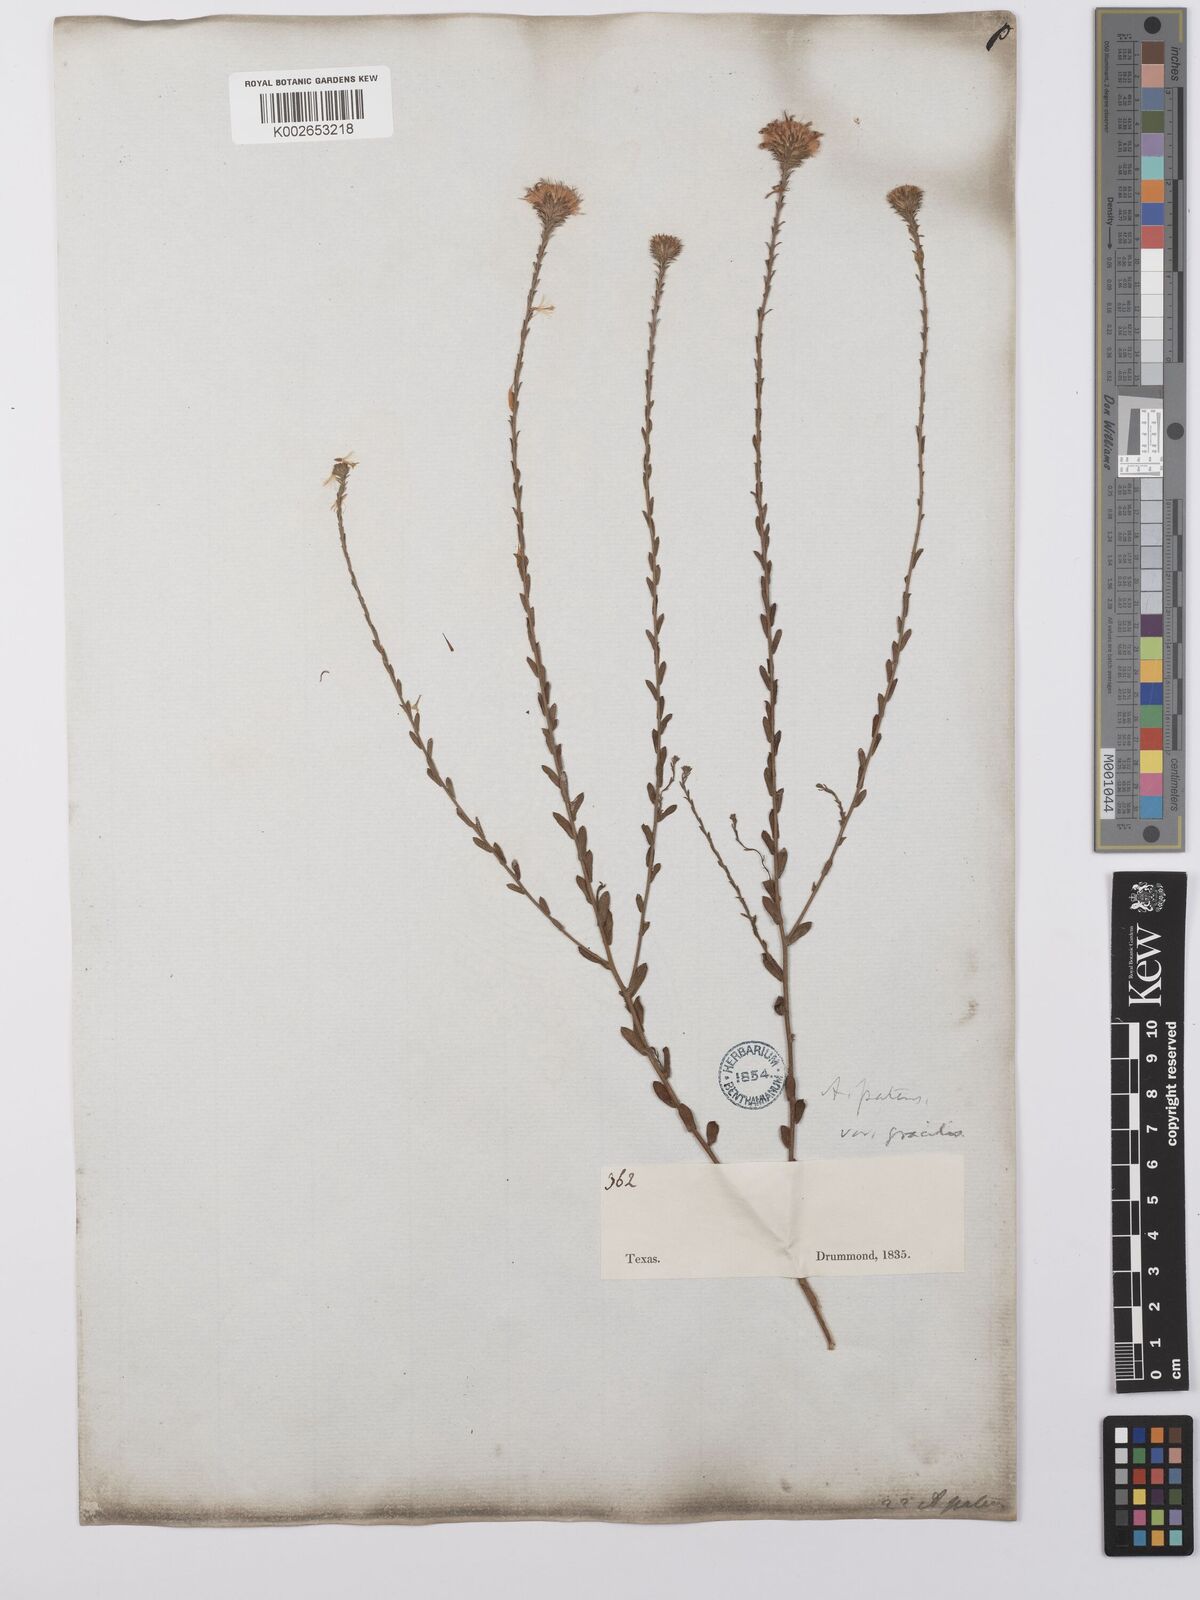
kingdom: Plantae
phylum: Tracheophyta
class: Magnoliopsida
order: Asterales
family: Asteraceae
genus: Symphyotrichum
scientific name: Symphyotrichum patens
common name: Late purple aster
